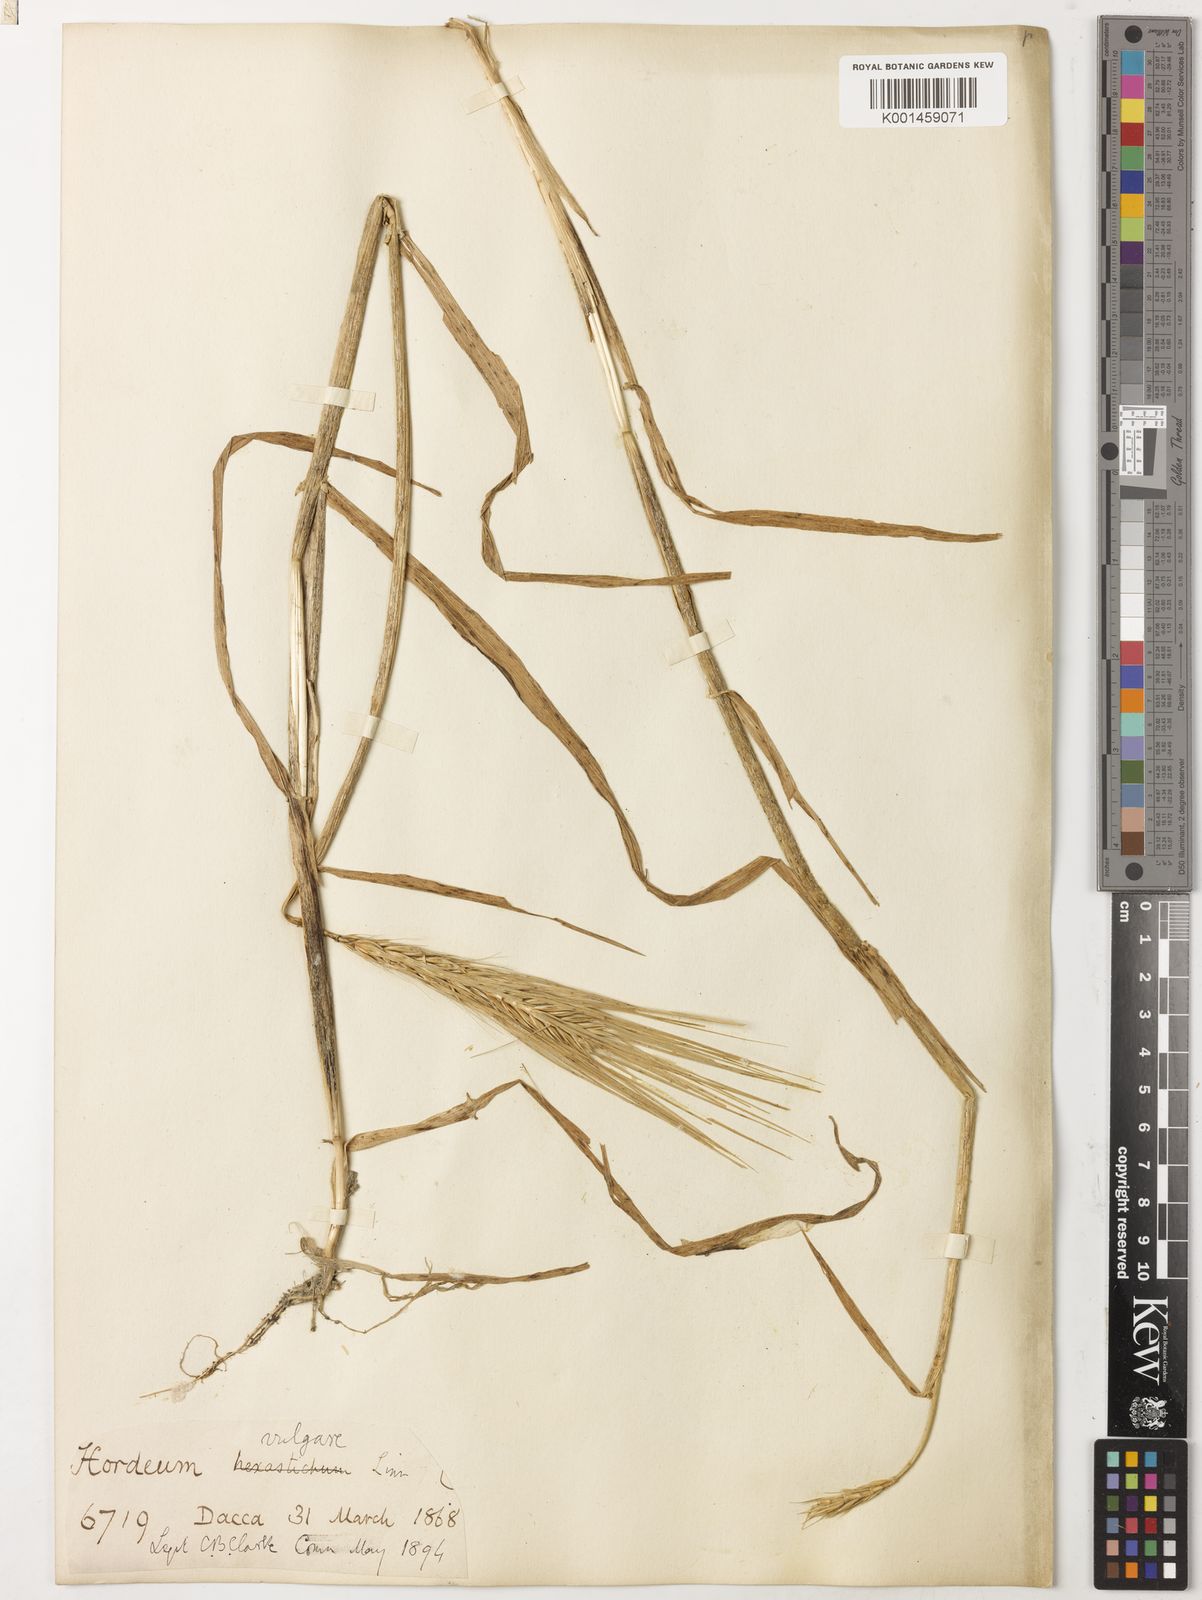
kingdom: Plantae
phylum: Tracheophyta
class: Liliopsida
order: Poales
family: Poaceae
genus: Hordeum
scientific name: Hordeum vulgare
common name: Common barley
